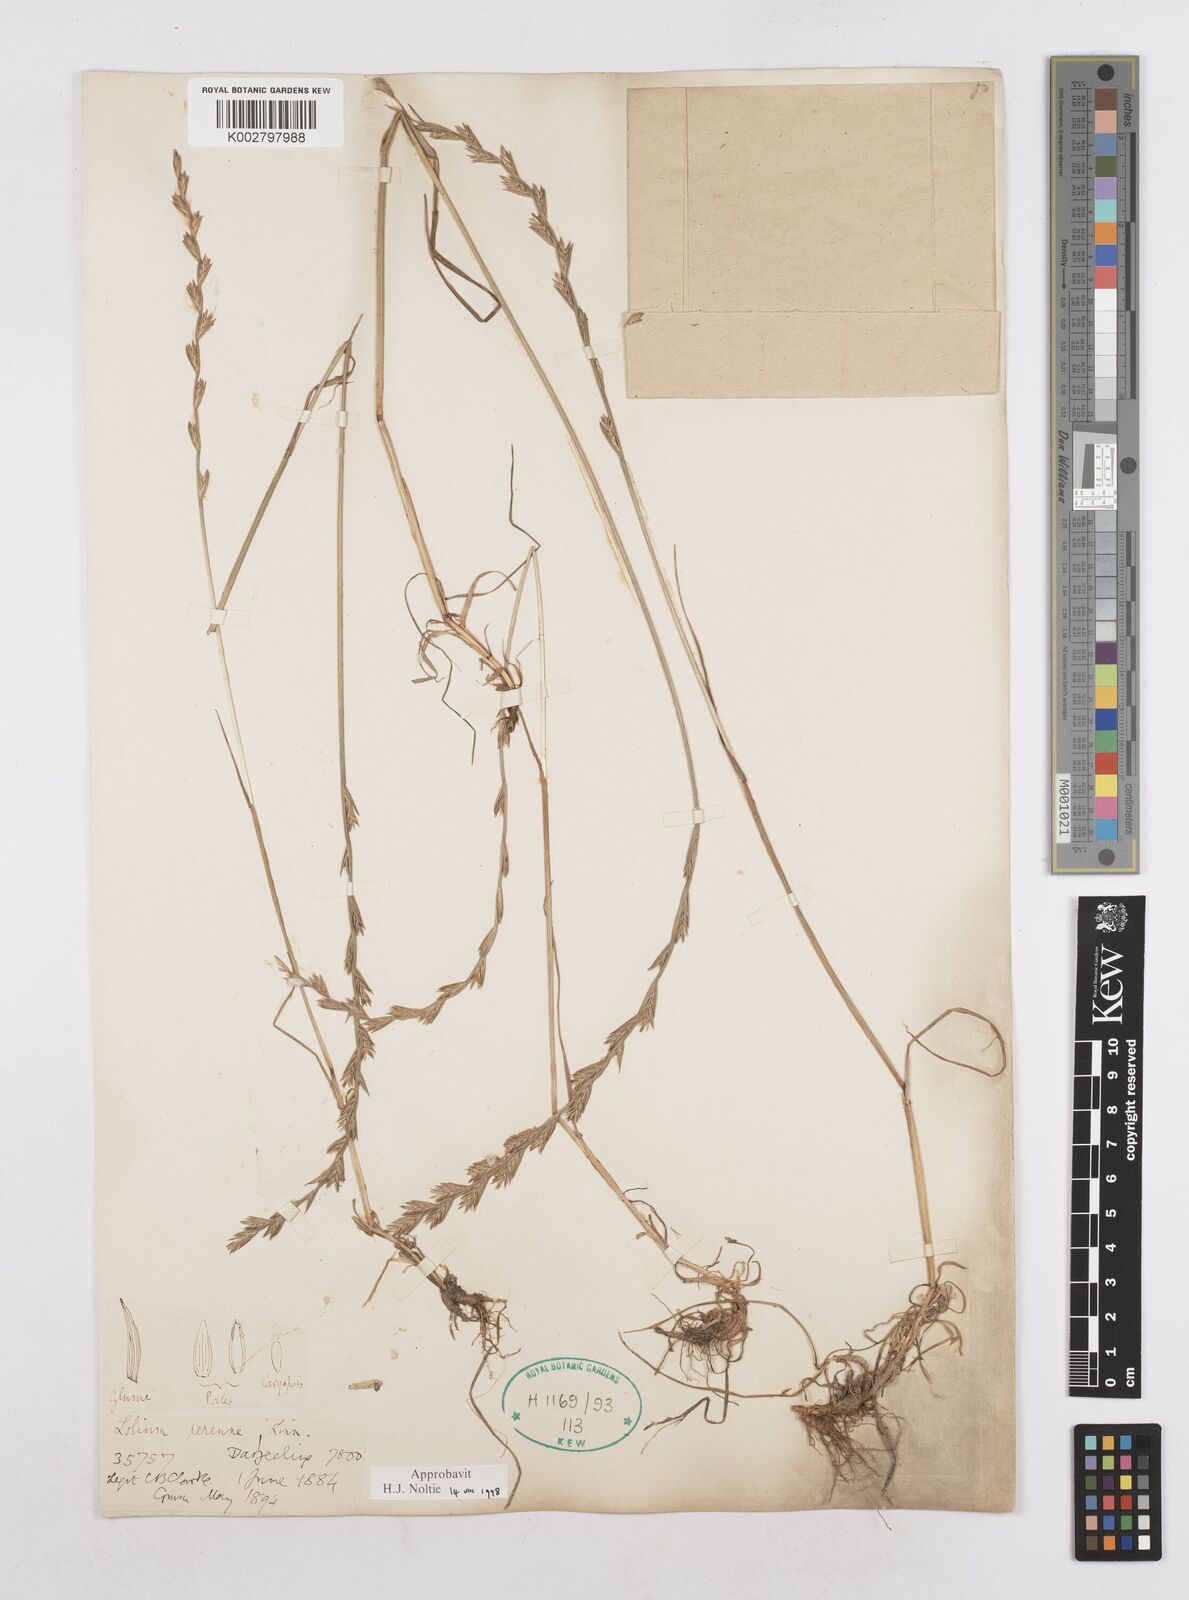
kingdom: Plantae
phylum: Tracheophyta
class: Liliopsida
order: Poales
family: Poaceae
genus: Lolium
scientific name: Lolium perenne
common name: Perennial ryegrass
